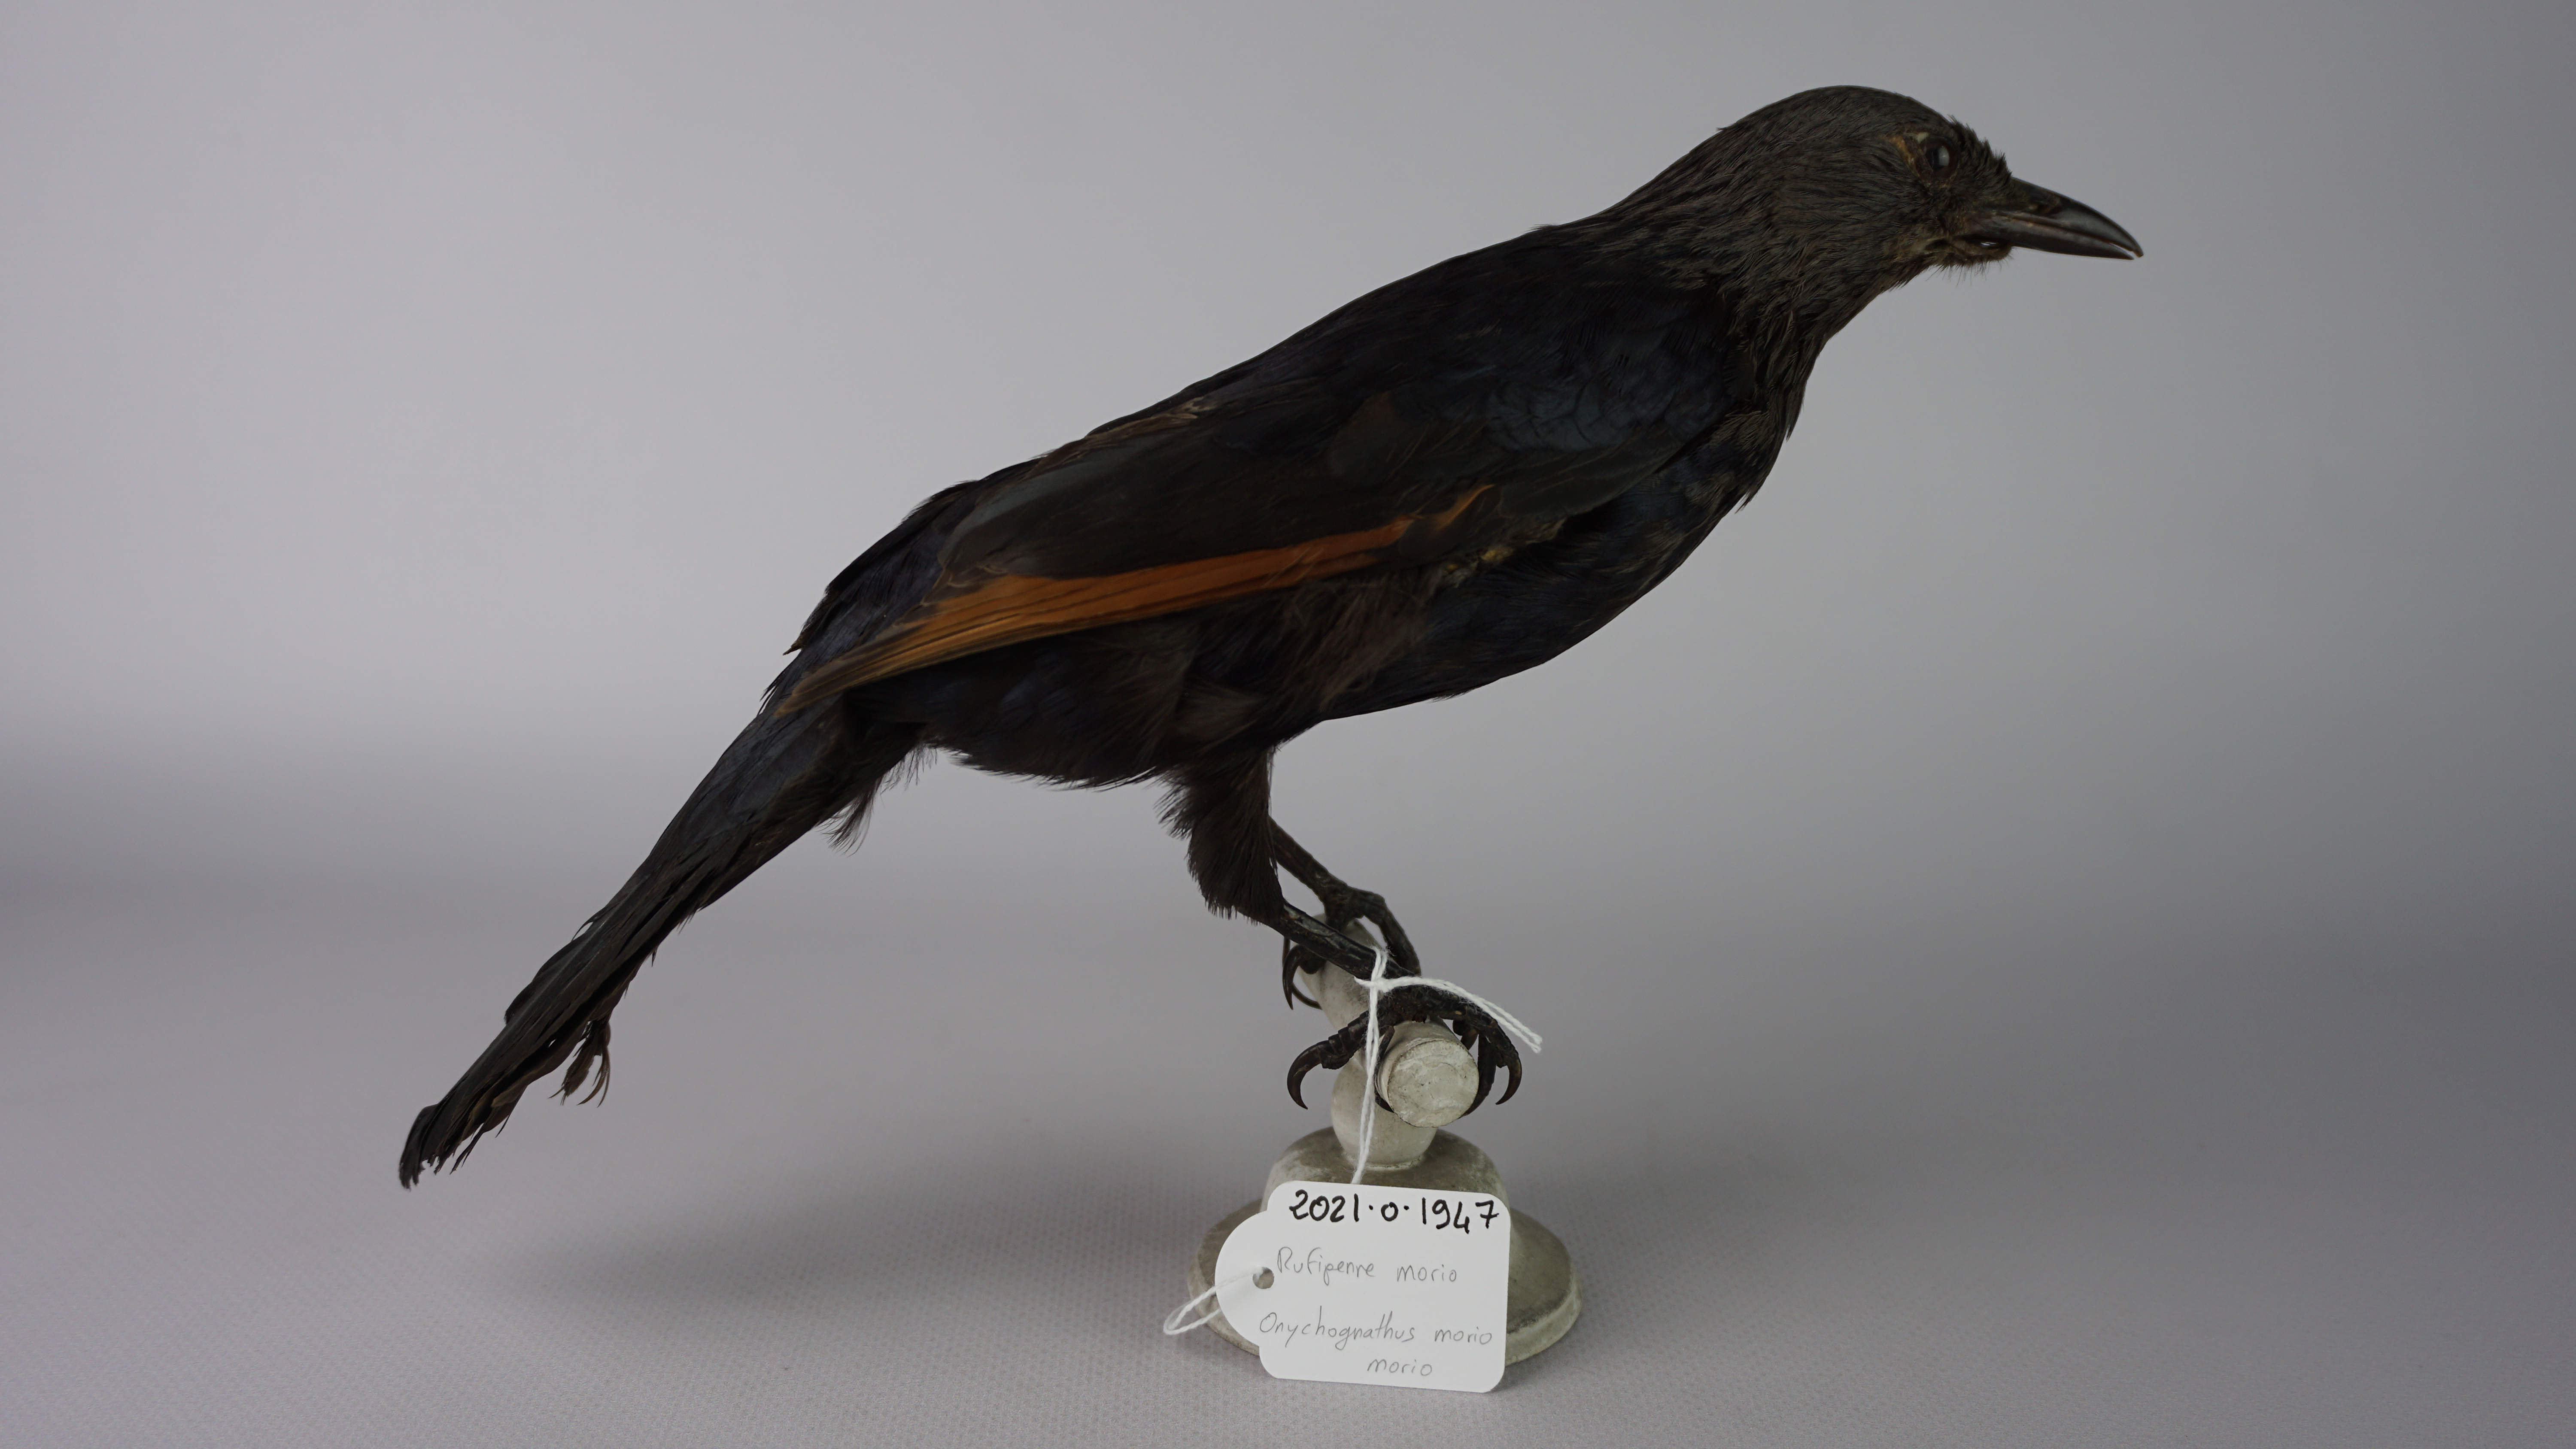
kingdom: Animalia
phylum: Chordata
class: Aves
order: Passeriformes
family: Sturnidae
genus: Onychognathus
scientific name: Onychognathus morio
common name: Red-winged starling
